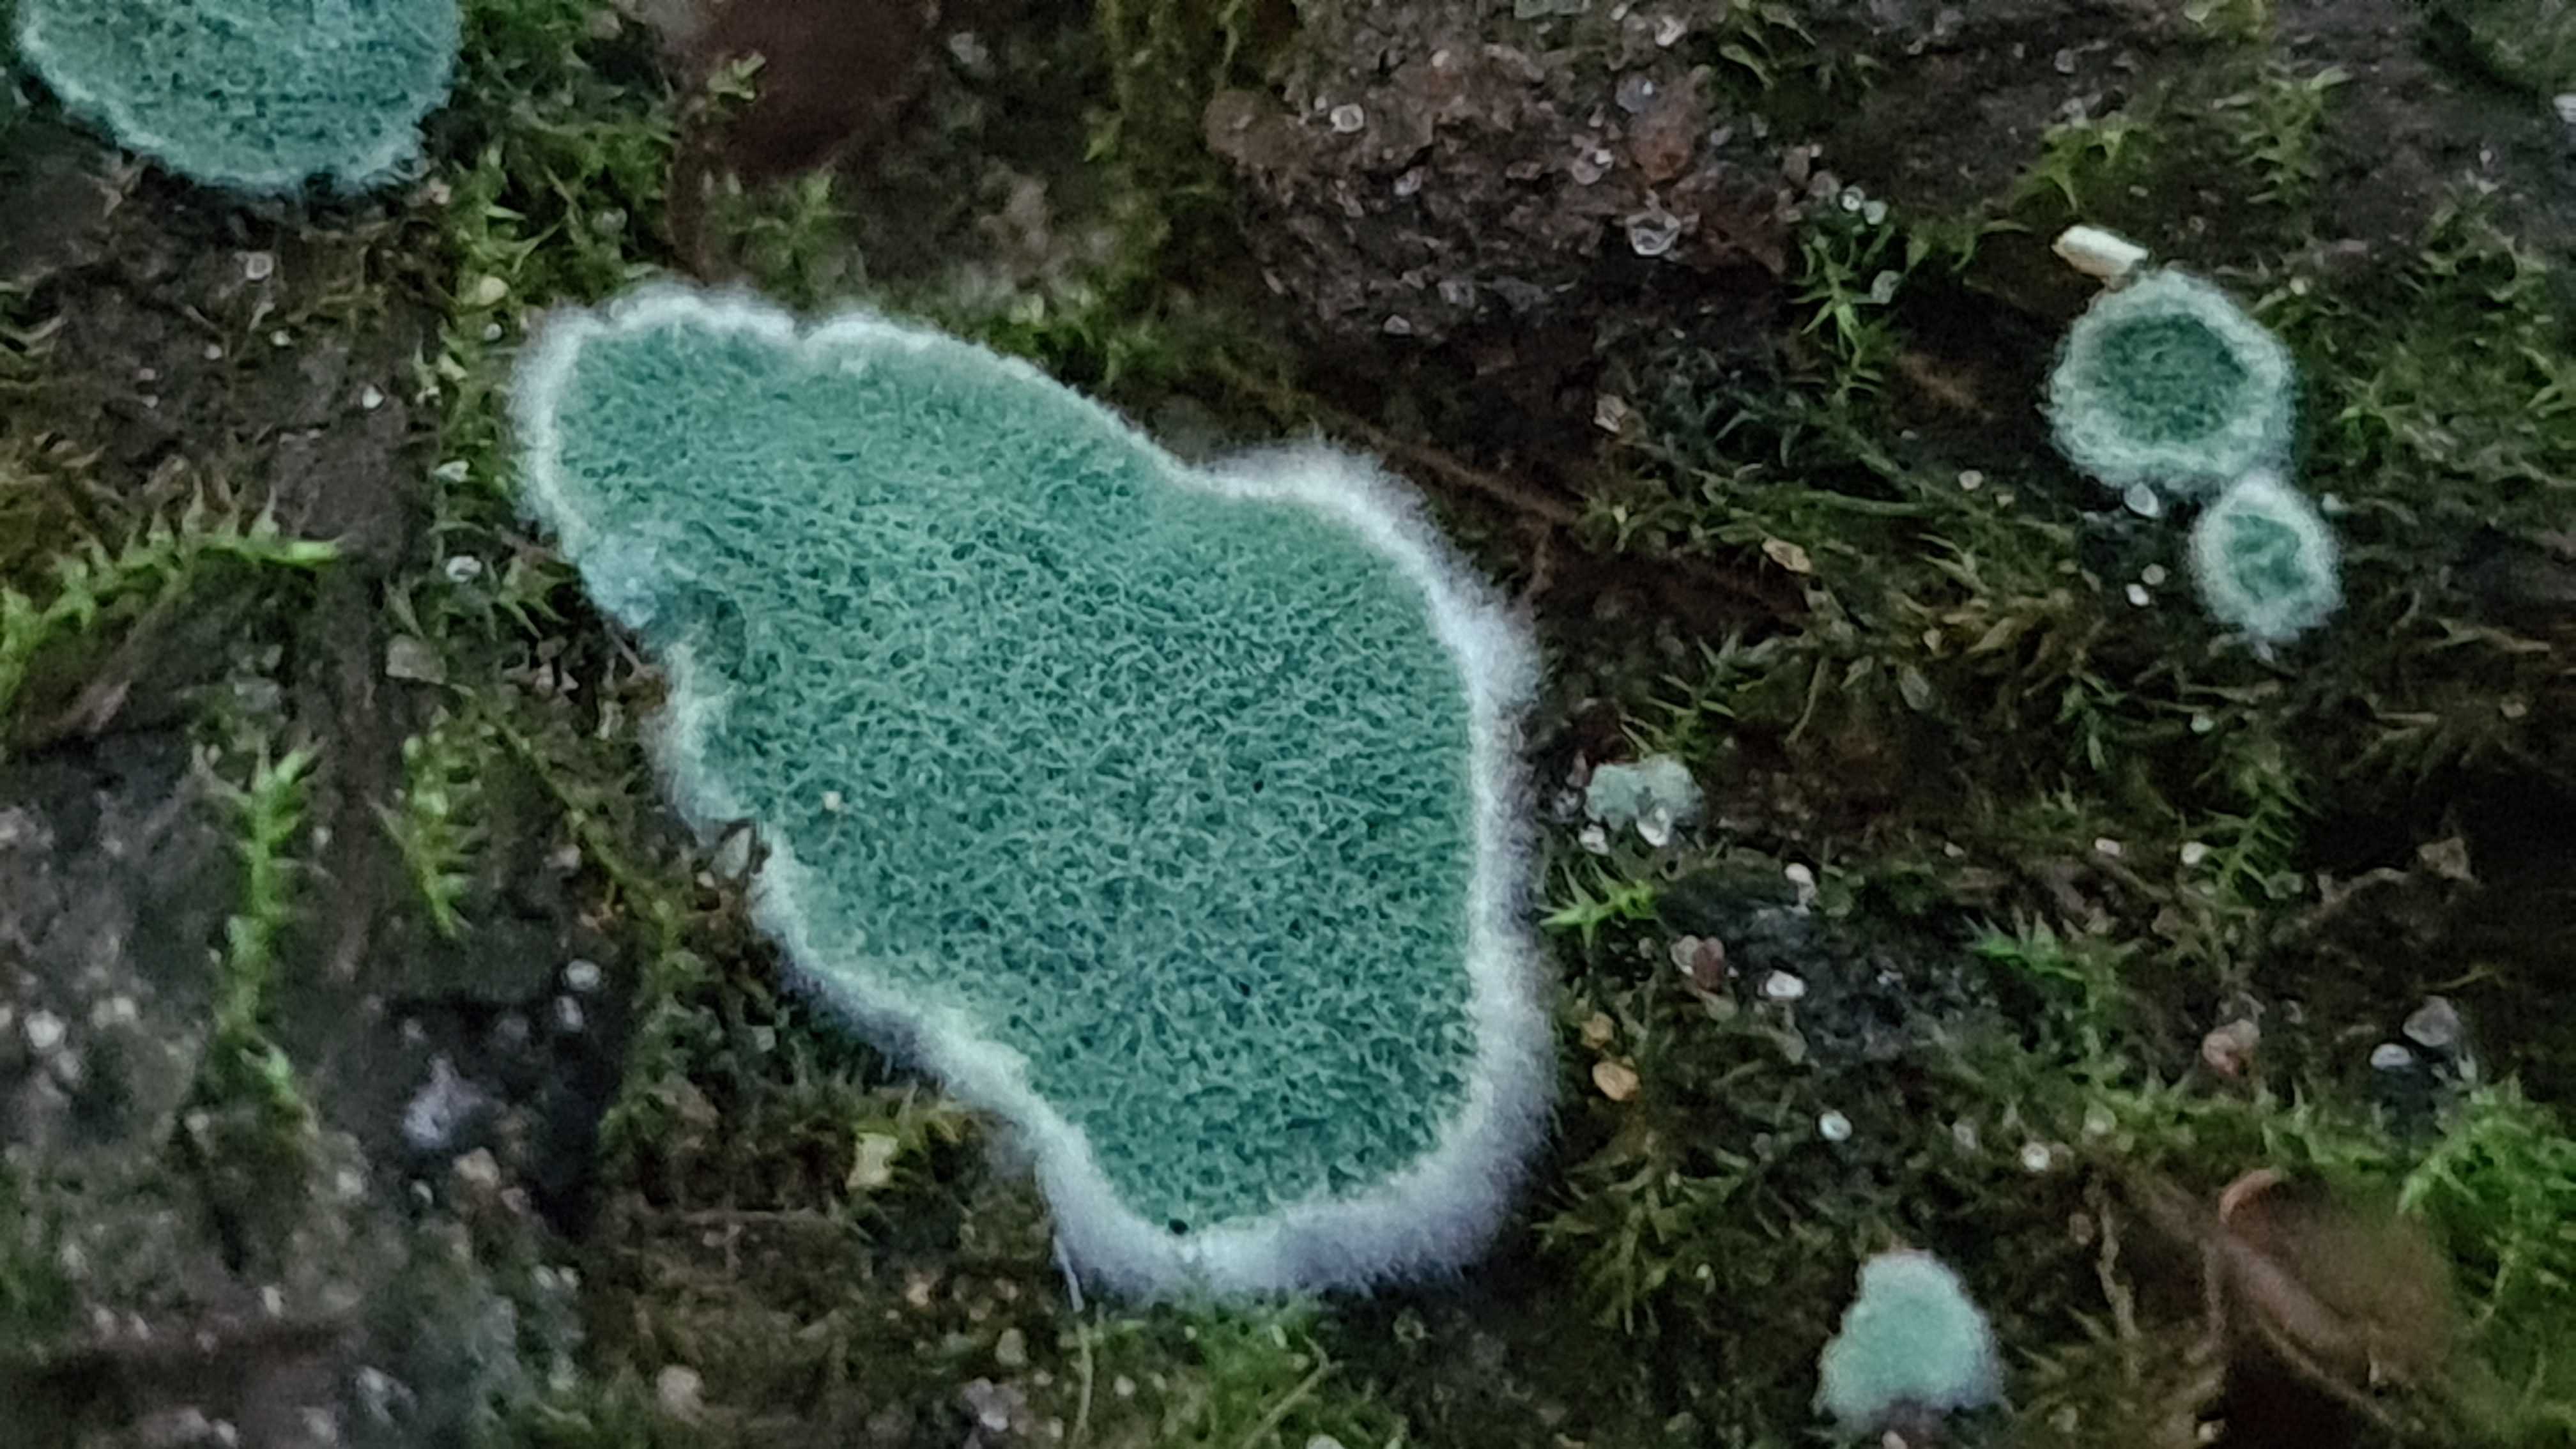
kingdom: Fungi
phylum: Ascomycota
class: Sordariomycetes
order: Hypocreales
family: Hypocreaceae
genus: Trichoderma
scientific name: Trichoderma
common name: kødkerne
